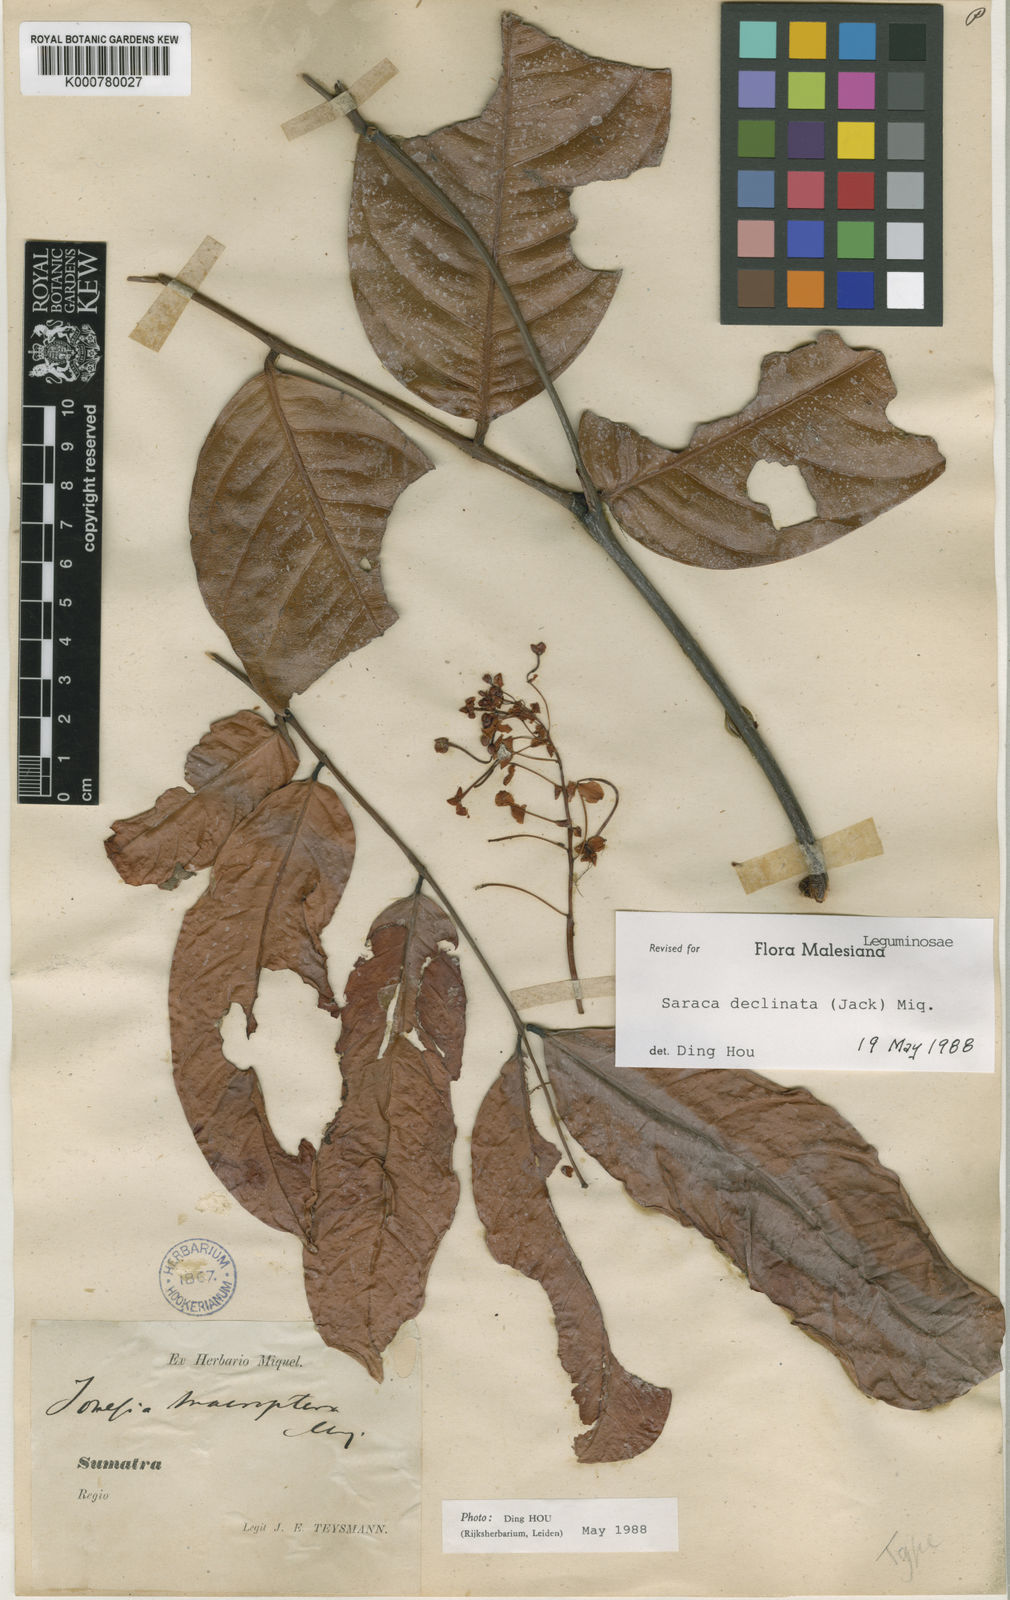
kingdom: Plantae
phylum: Tracheophyta
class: Magnoliopsida
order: Fabales
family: Fabaceae
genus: Saraca
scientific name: Saraca declinata
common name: Red saraca
